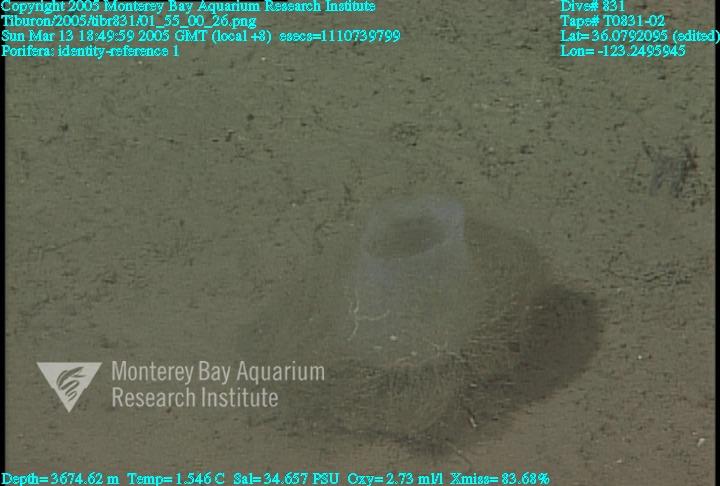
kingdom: Animalia
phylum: Porifera
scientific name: Porifera
